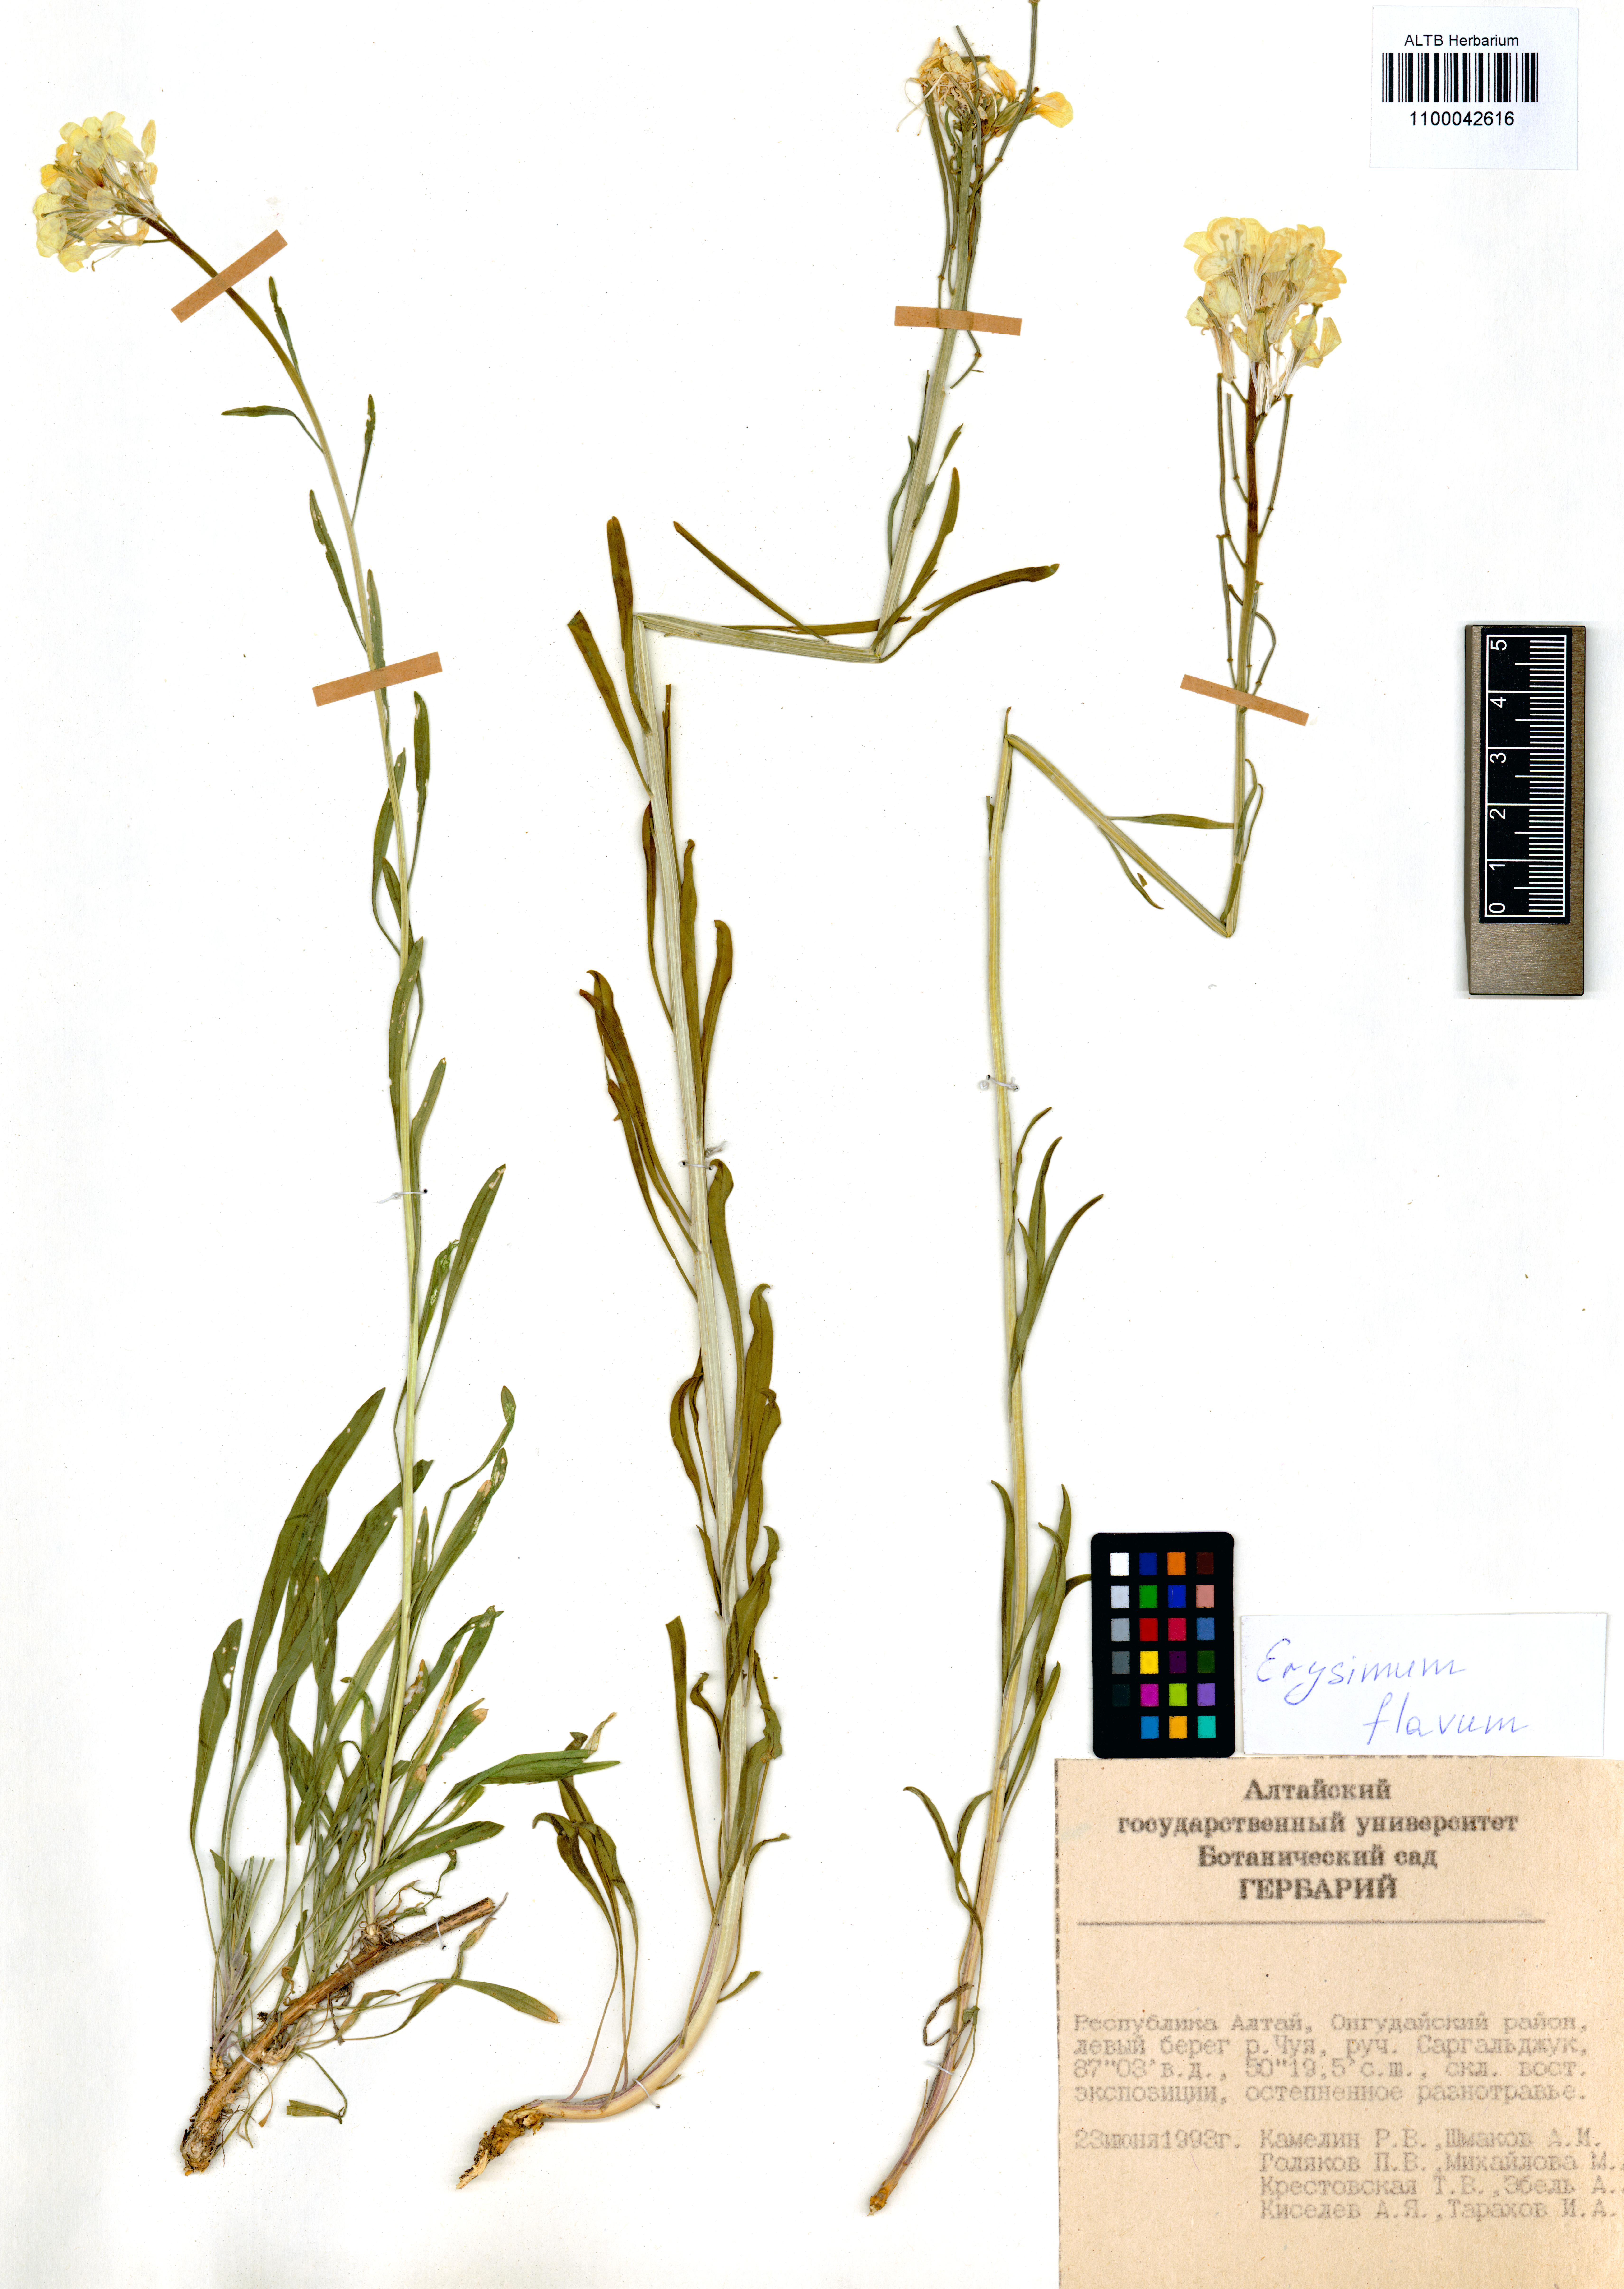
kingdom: Plantae
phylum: Tracheophyta
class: Magnoliopsida
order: Brassicales
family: Brassicaceae
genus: Erysimum
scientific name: Erysimum flavum
